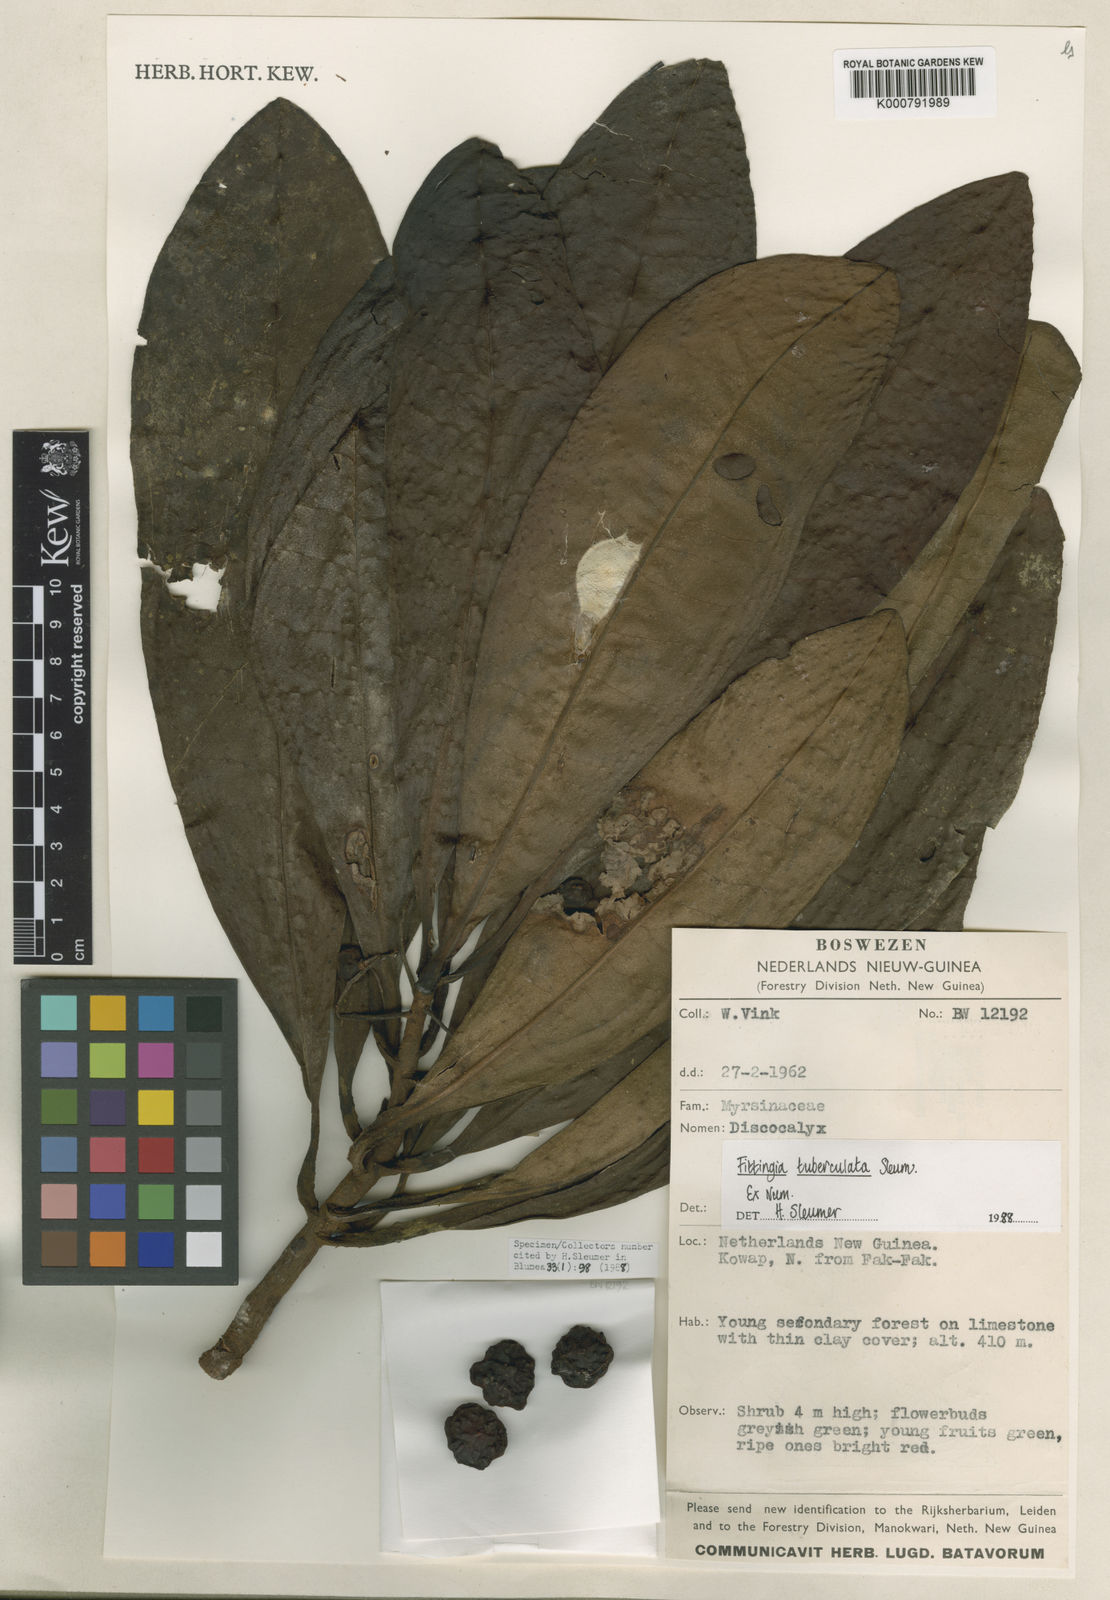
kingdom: Plantae
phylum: Tracheophyta
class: Magnoliopsida
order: Ericales
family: Primulaceae
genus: Fittingia
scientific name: Fittingia tuberculata
